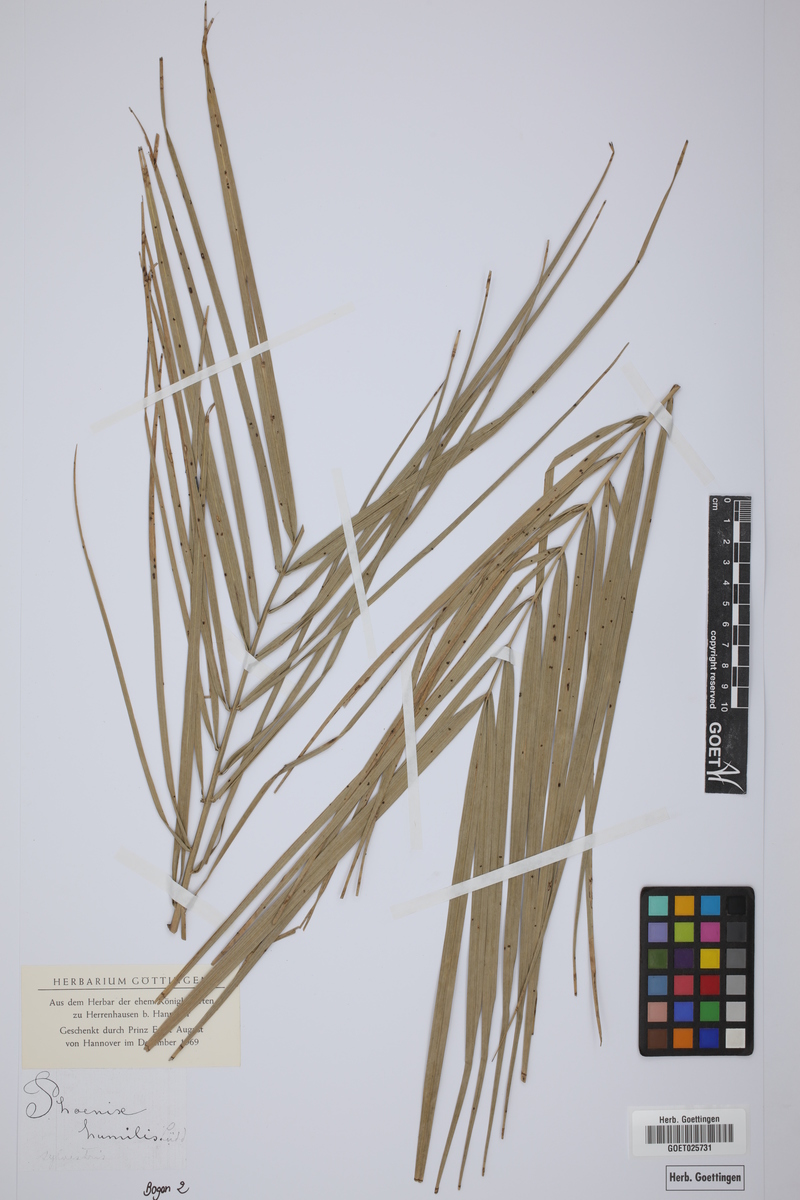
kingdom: Plantae
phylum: Tracheophyta
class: Liliopsida
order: Arecales
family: Arecaceae
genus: Chamaerops
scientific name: Chamaerops humilis
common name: Dwarf fan palm
